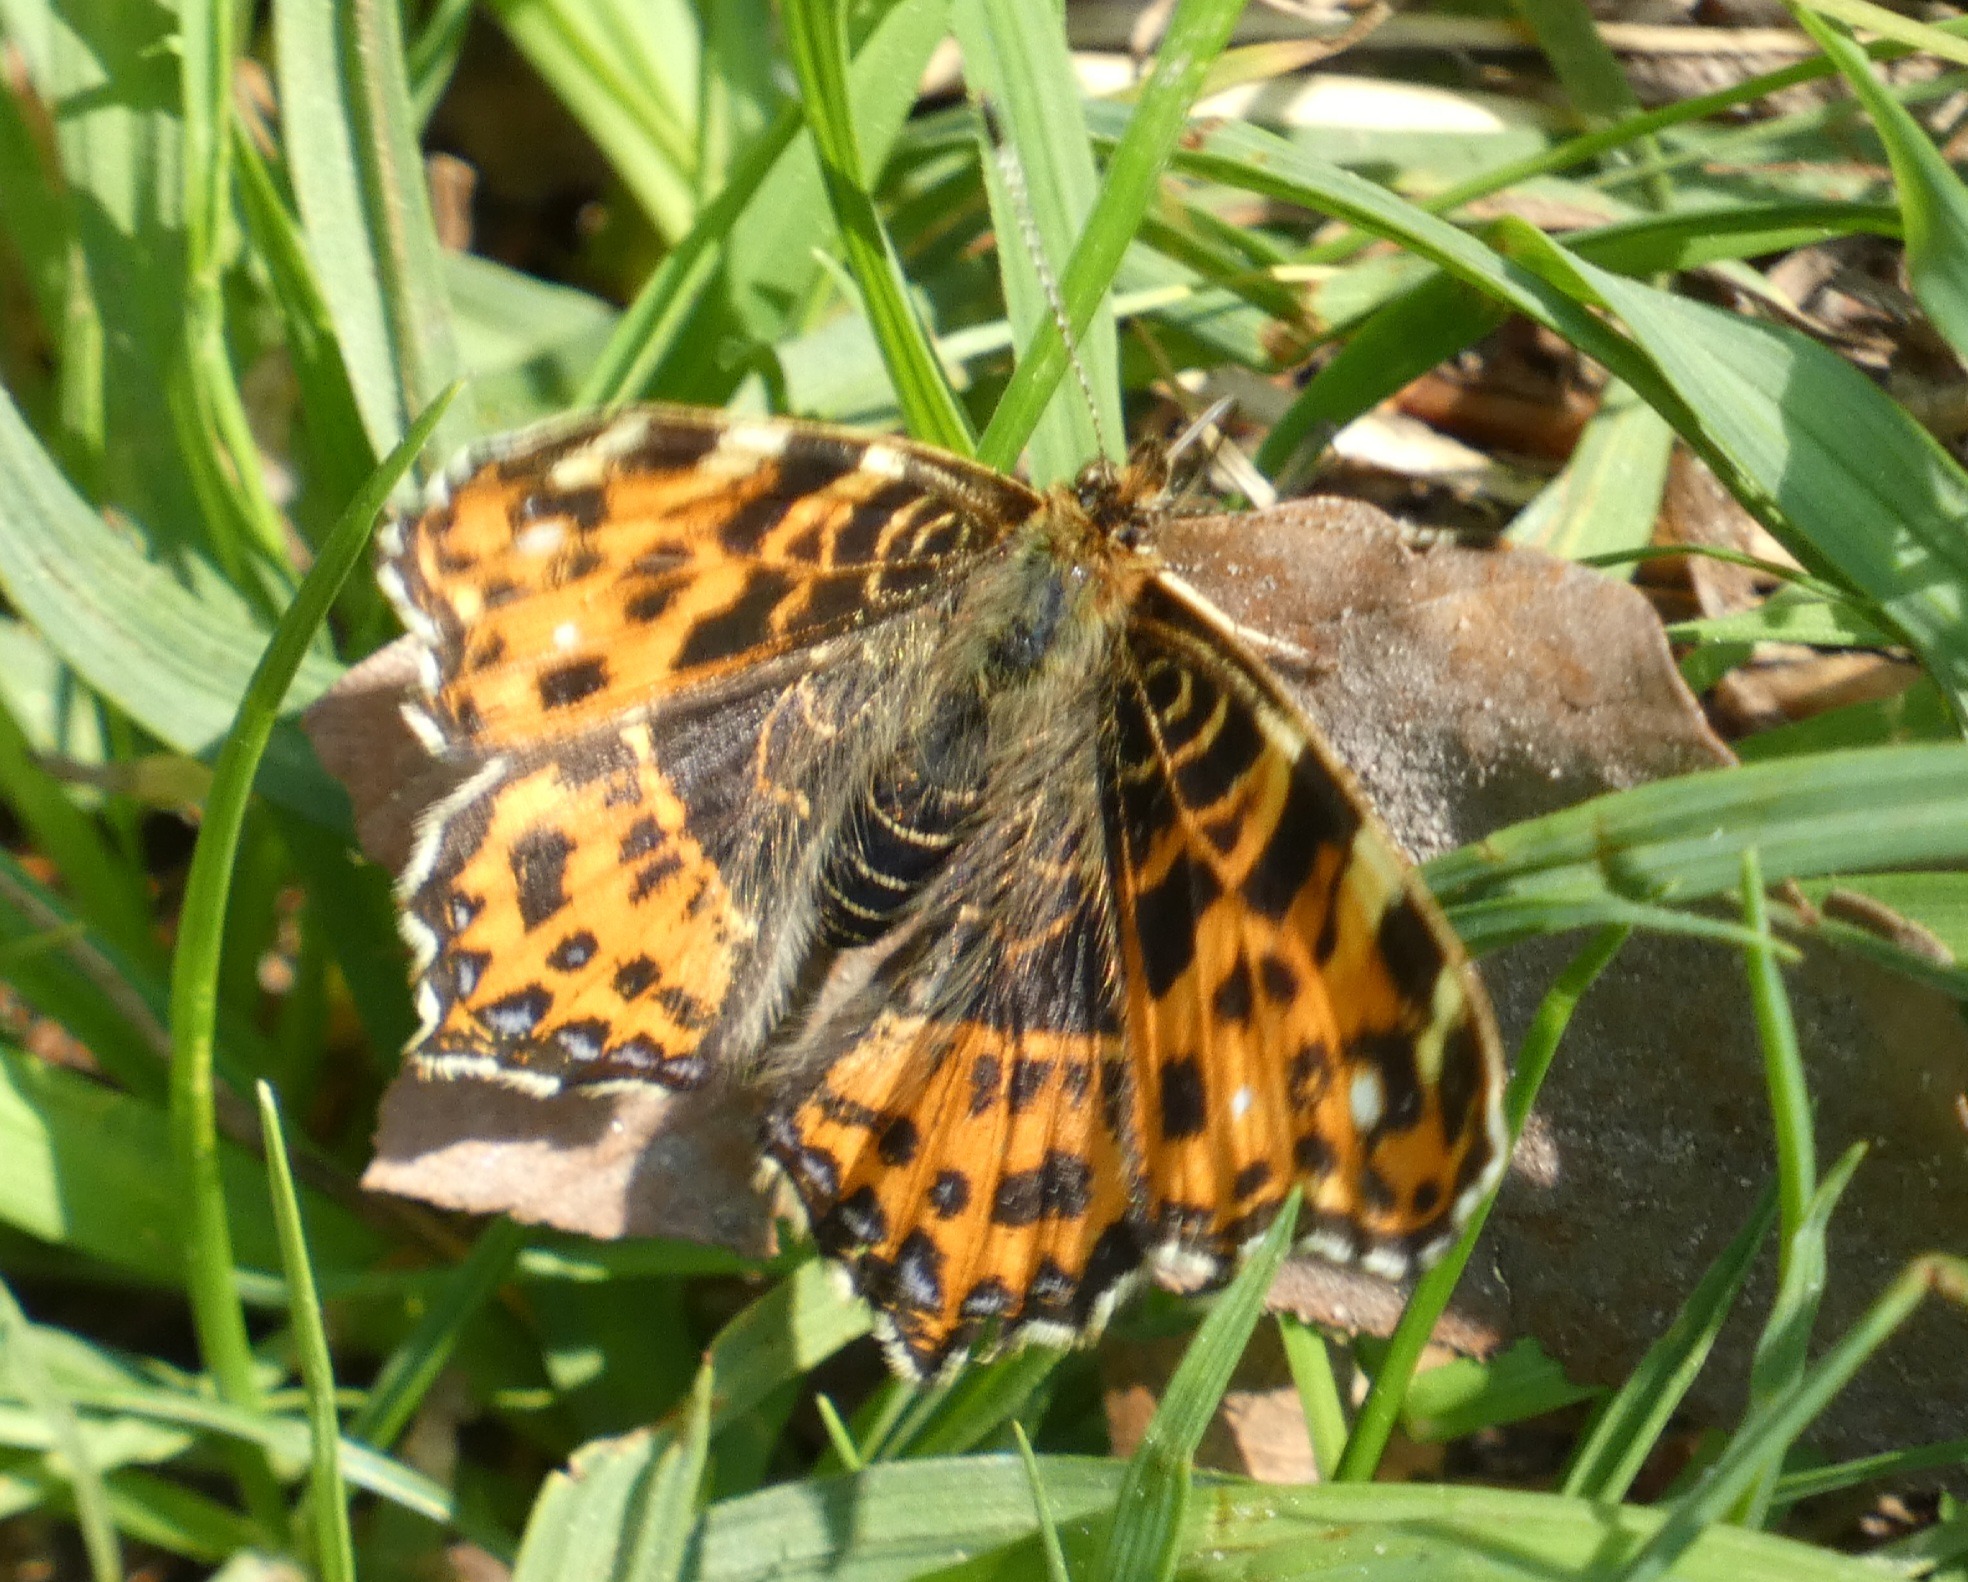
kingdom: Animalia
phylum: Arthropoda
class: Insecta
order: Lepidoptera
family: Nymphalidae
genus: Araschnia
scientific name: Araschnia levana
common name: Nældesommerfugl
